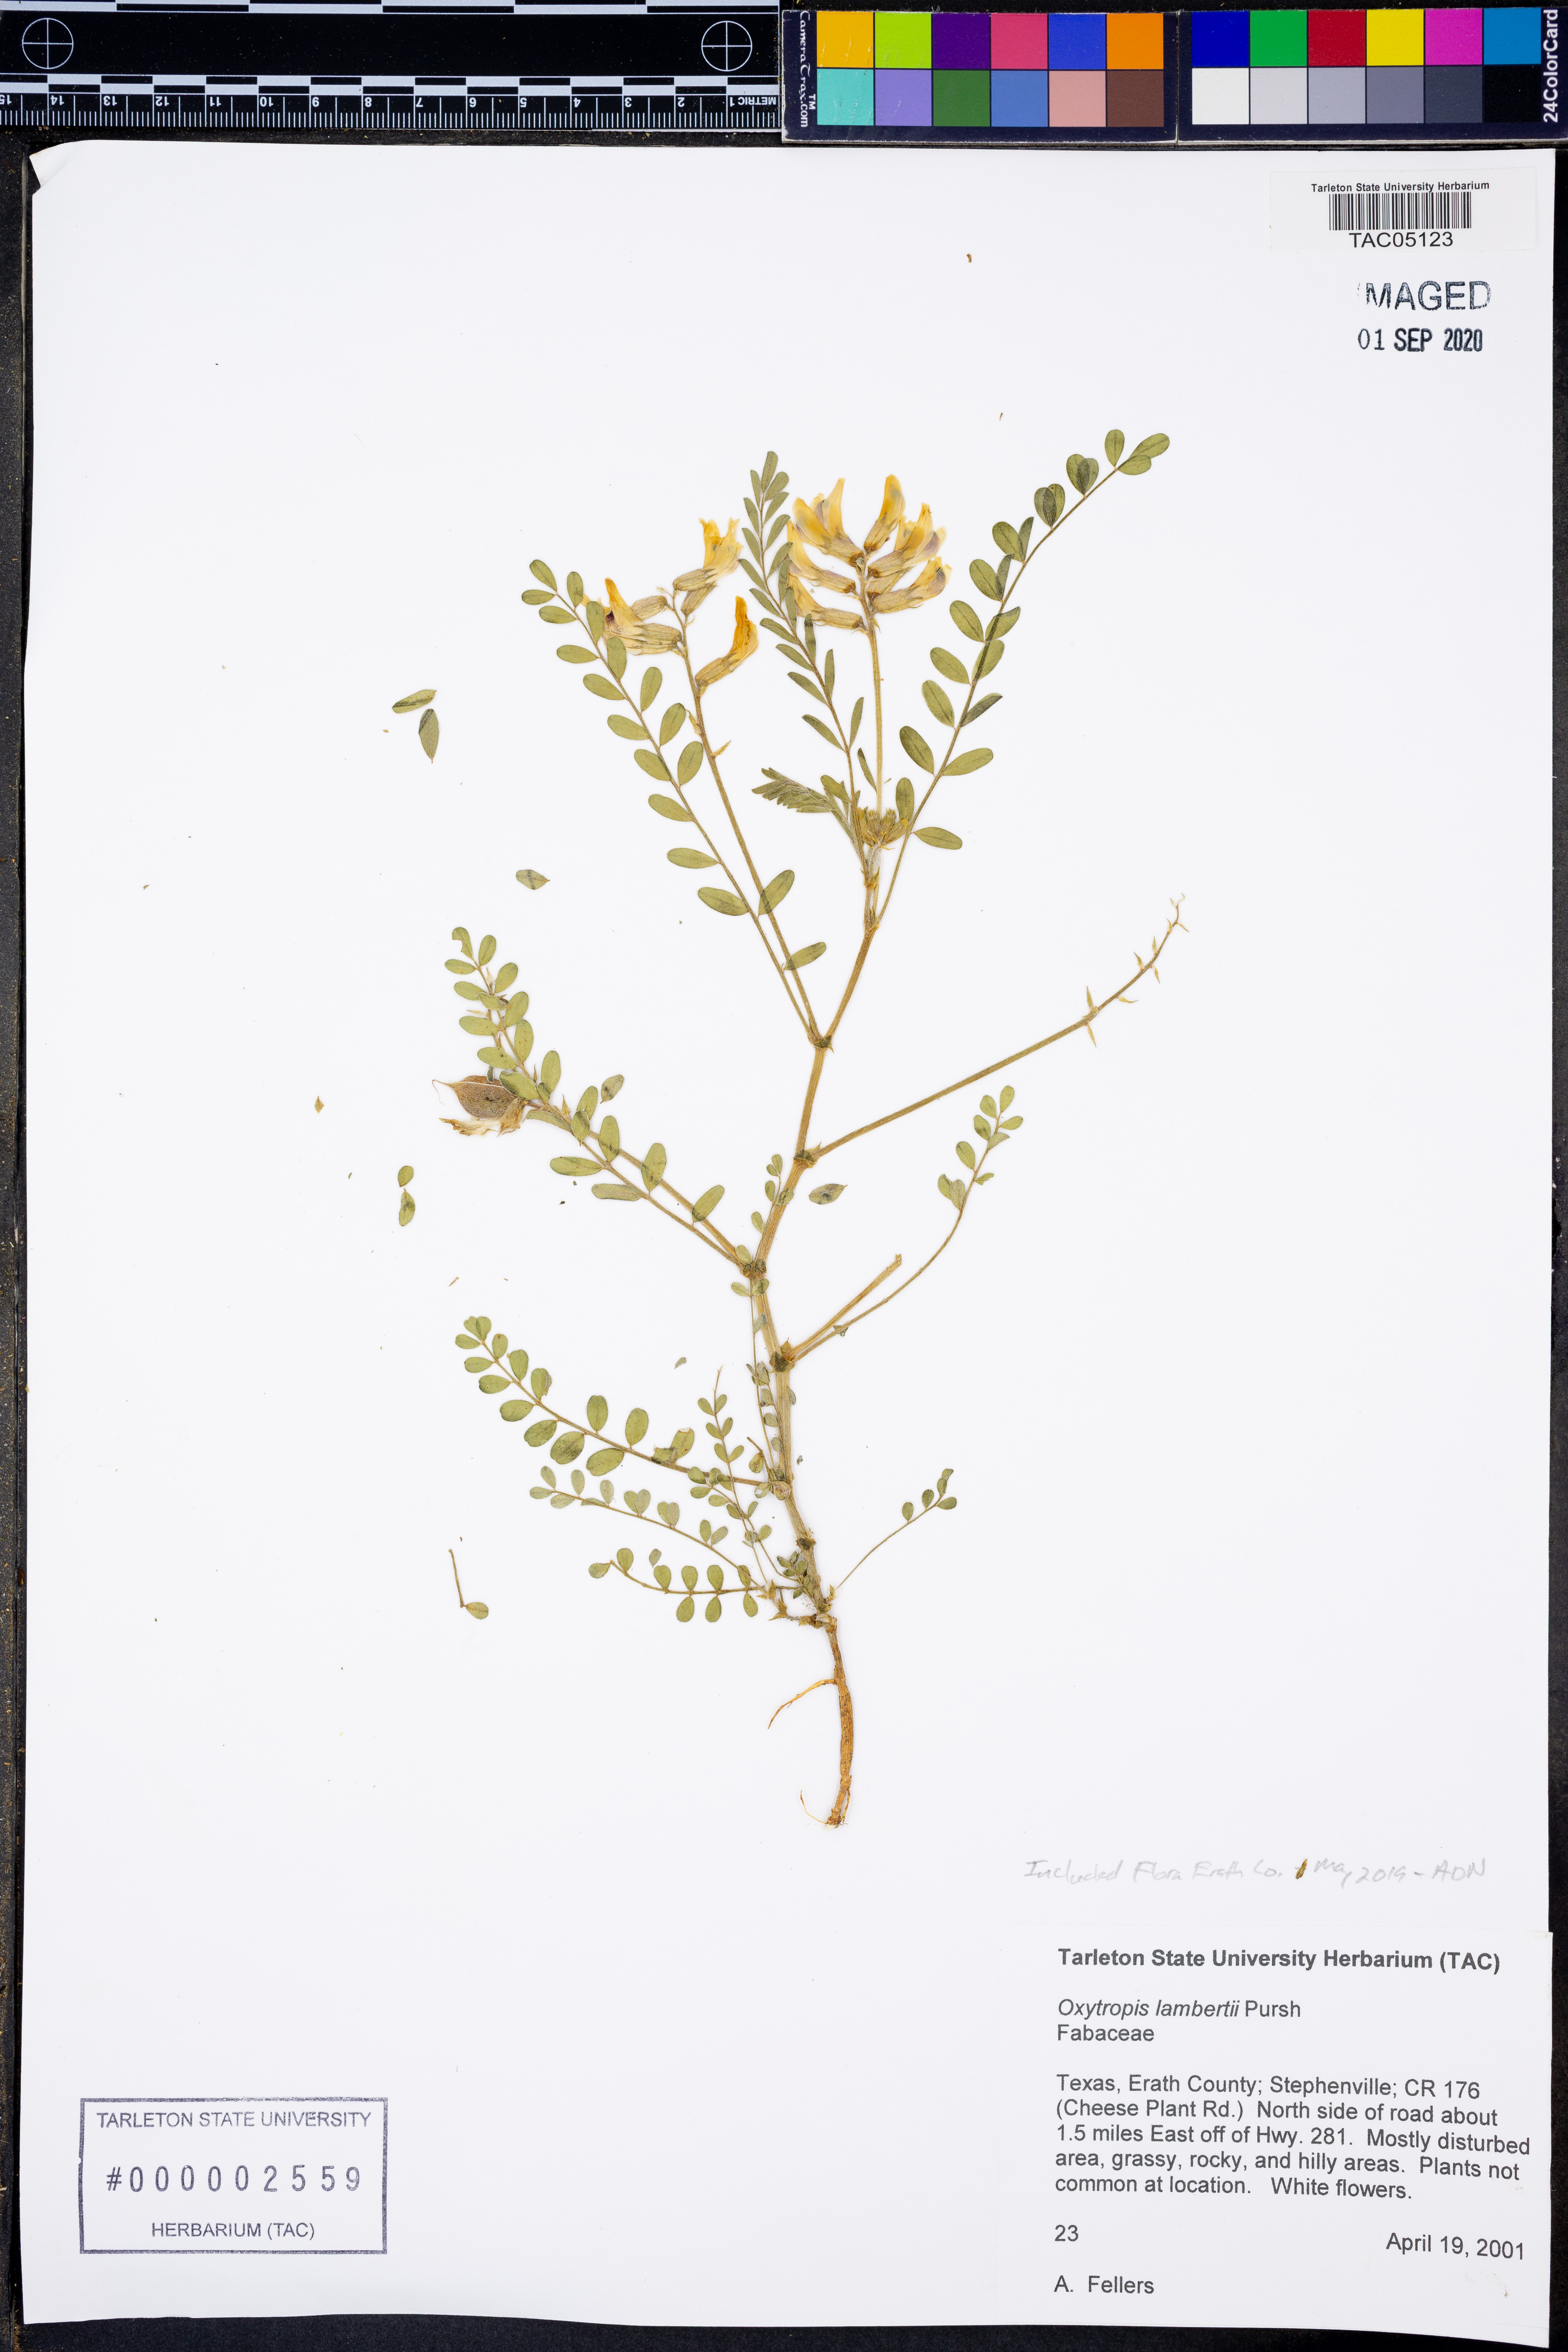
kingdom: Plantae
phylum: Tracheophyta
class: Magnoliopsida
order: Fabales
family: Fabaceae
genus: Oxytropis
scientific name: Oxytropis lambertii
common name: Purple locoweed
